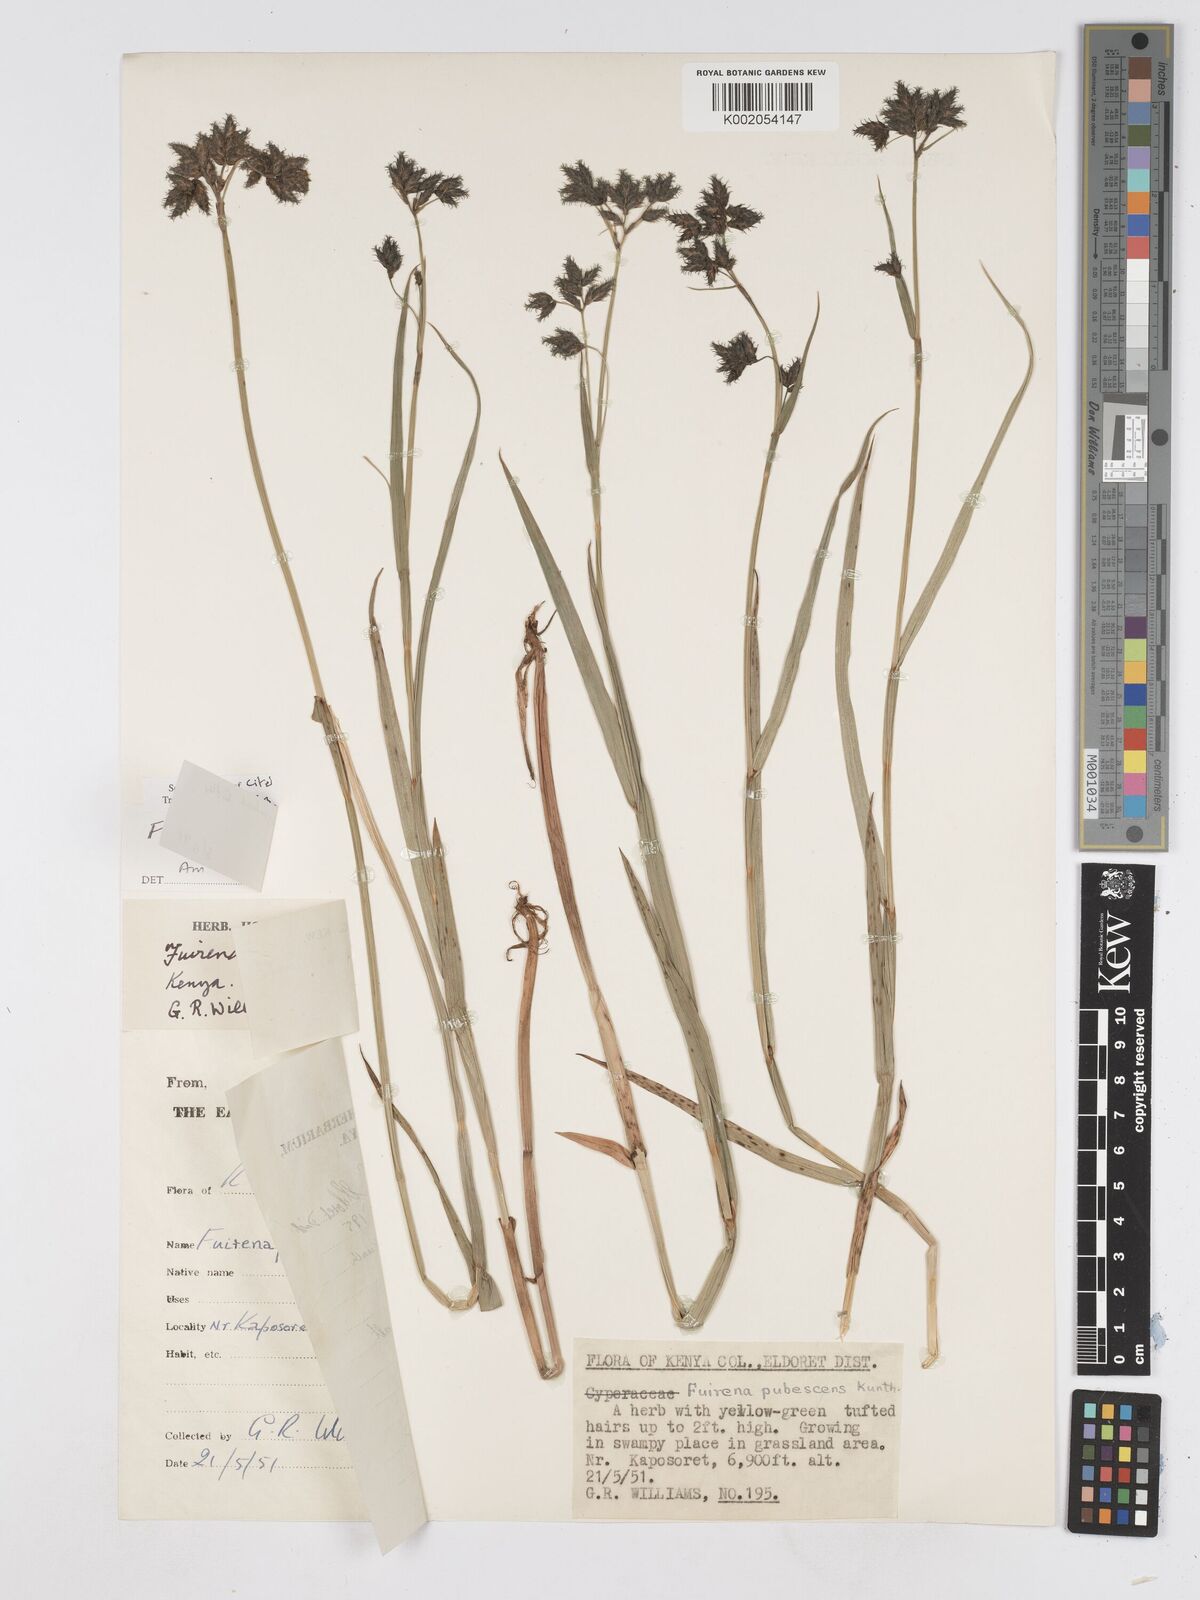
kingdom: Plantae
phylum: Tracheophyta
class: Liliopsida
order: Poales
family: Cyperaceae
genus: Fuirena
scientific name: Fuirena pachyrrhiza
